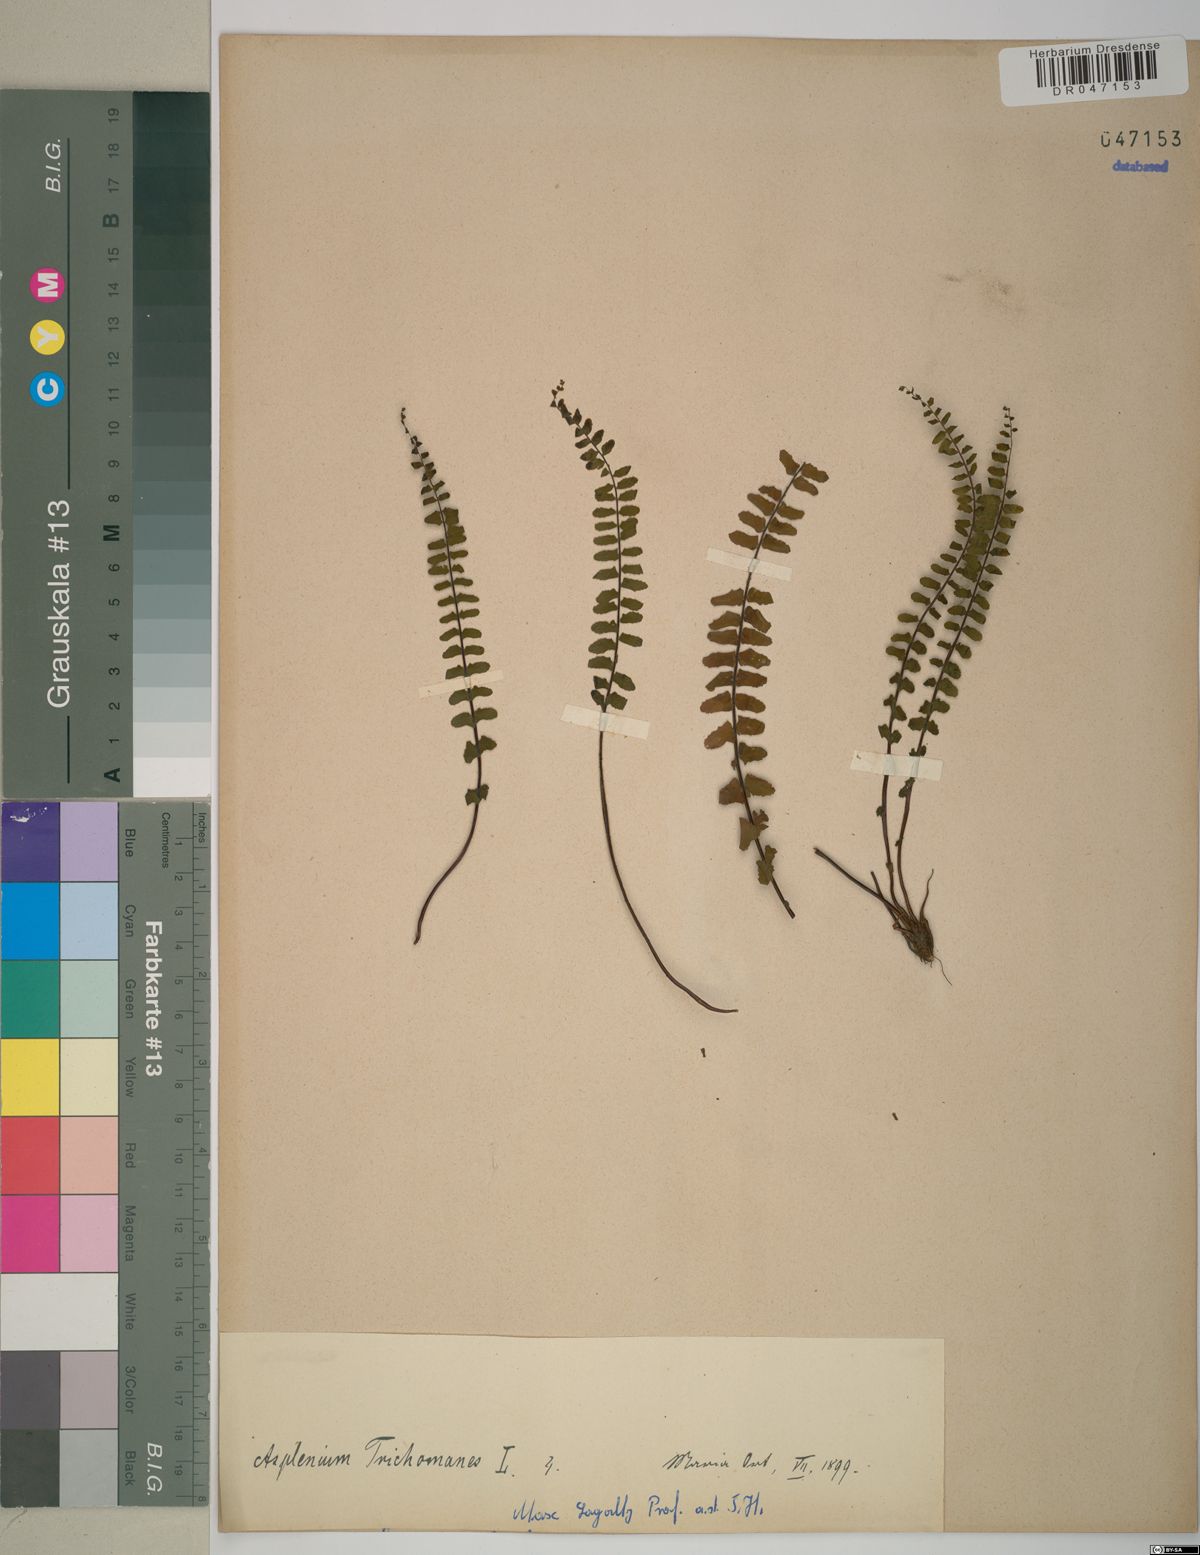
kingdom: Plantae
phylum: Tracheophyta
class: Polypodiopsida
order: Polypodiales
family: Aspleniaceae
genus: Asplenium
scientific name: Asplenium trichomanes
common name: Maidenhair spleenwort
